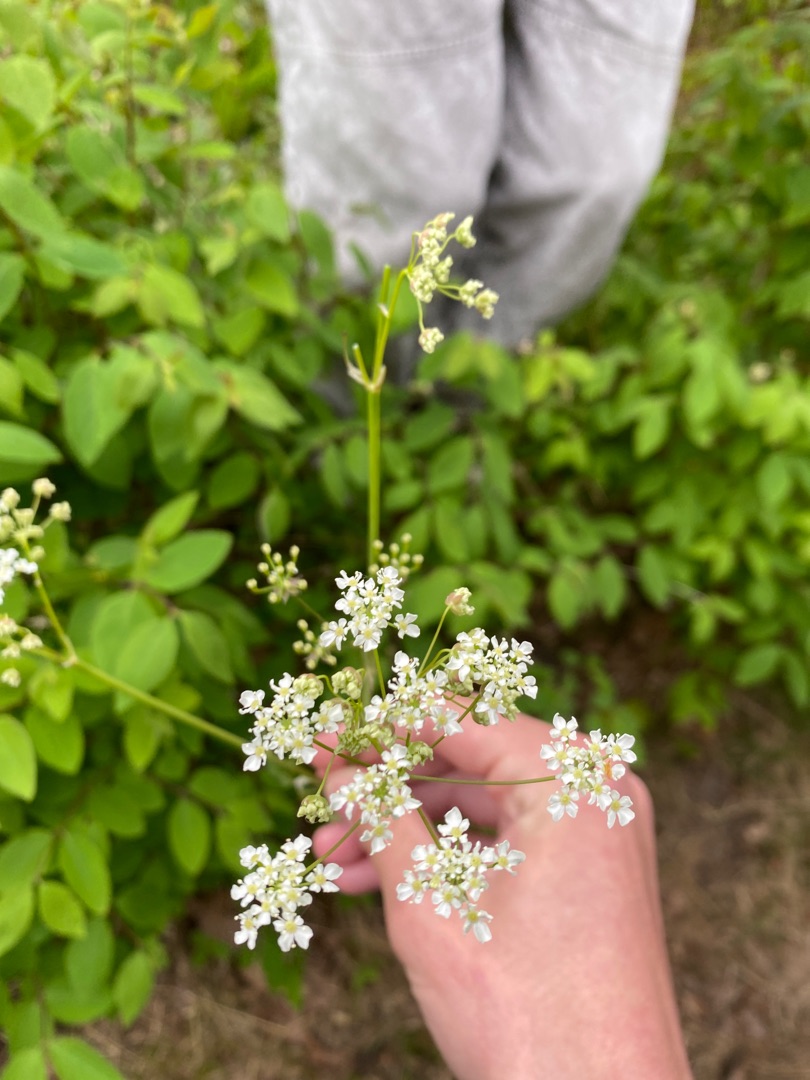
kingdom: Plantae
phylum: Tracheophyta
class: Magnoliopsida
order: Apiales
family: Apiaceae
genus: Anthriscus
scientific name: Anthriscus sylvestris
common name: Vild kørvel
